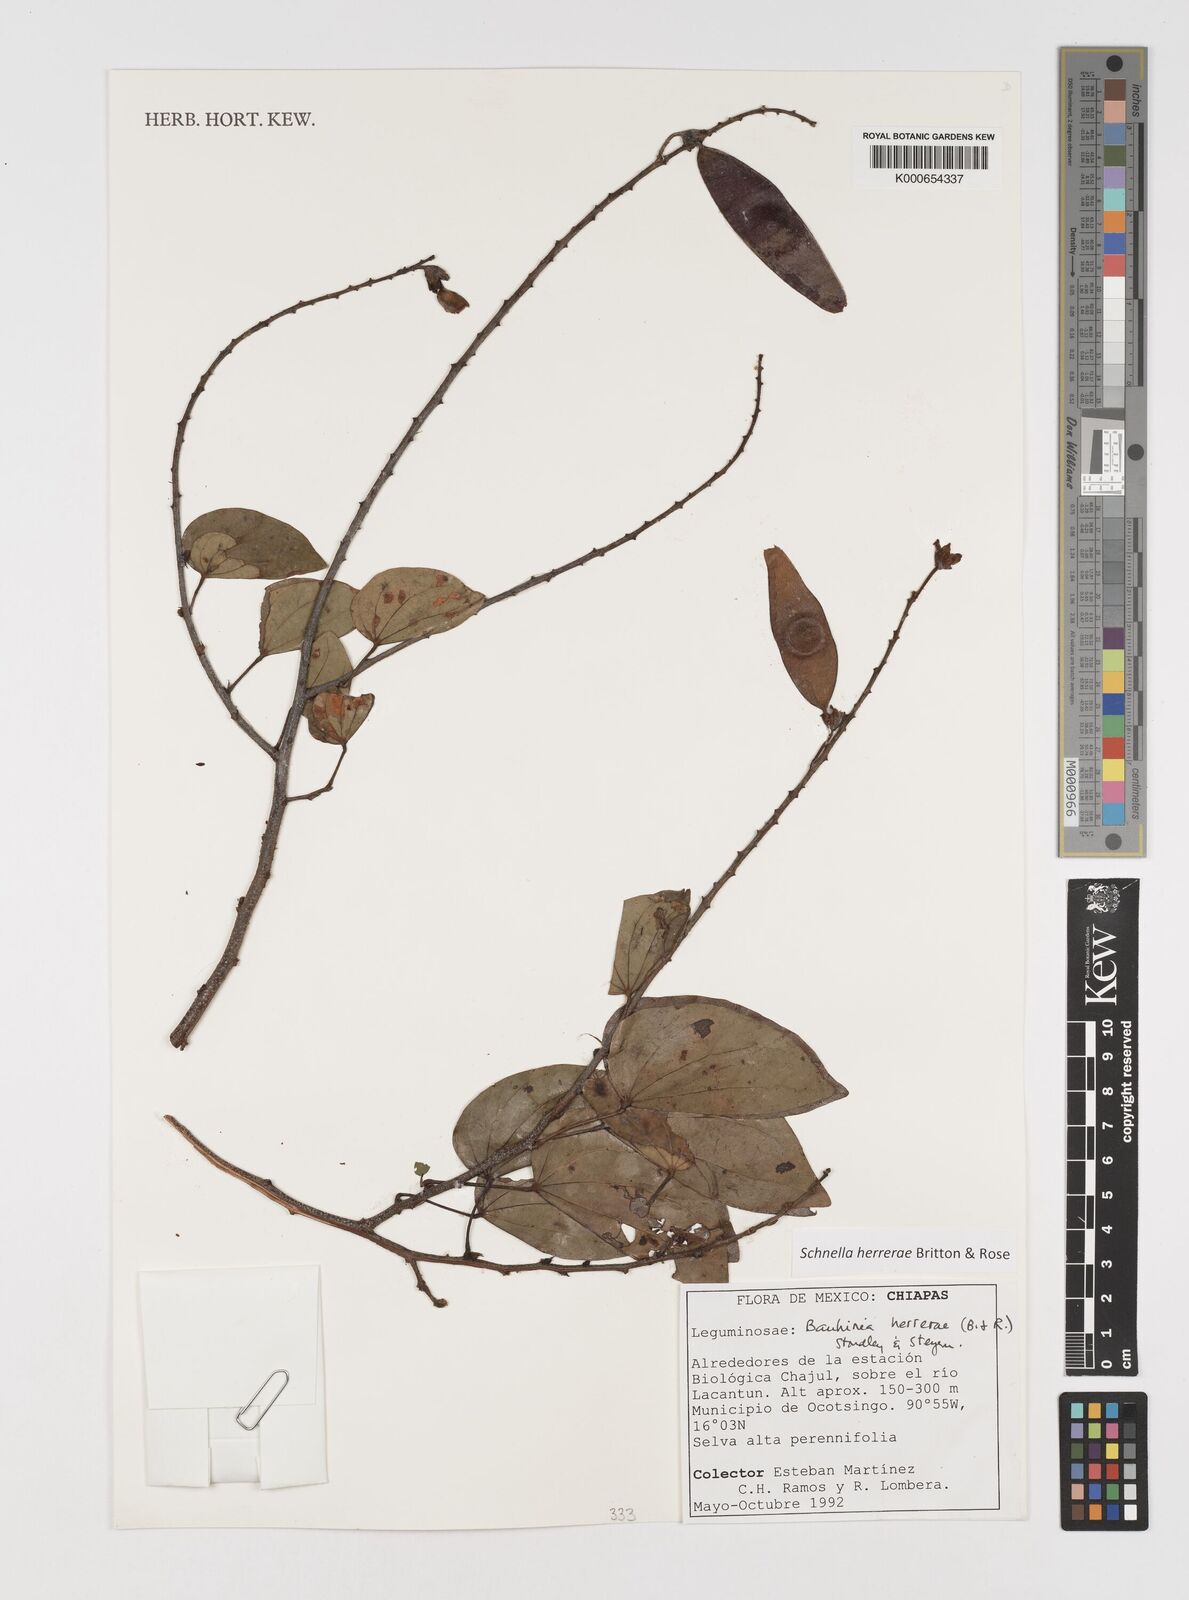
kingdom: Plantae
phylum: Tracheophyta
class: Magnoliopsida
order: Fabales
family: Fabaceae
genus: Schnella
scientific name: Schnella herrerae
